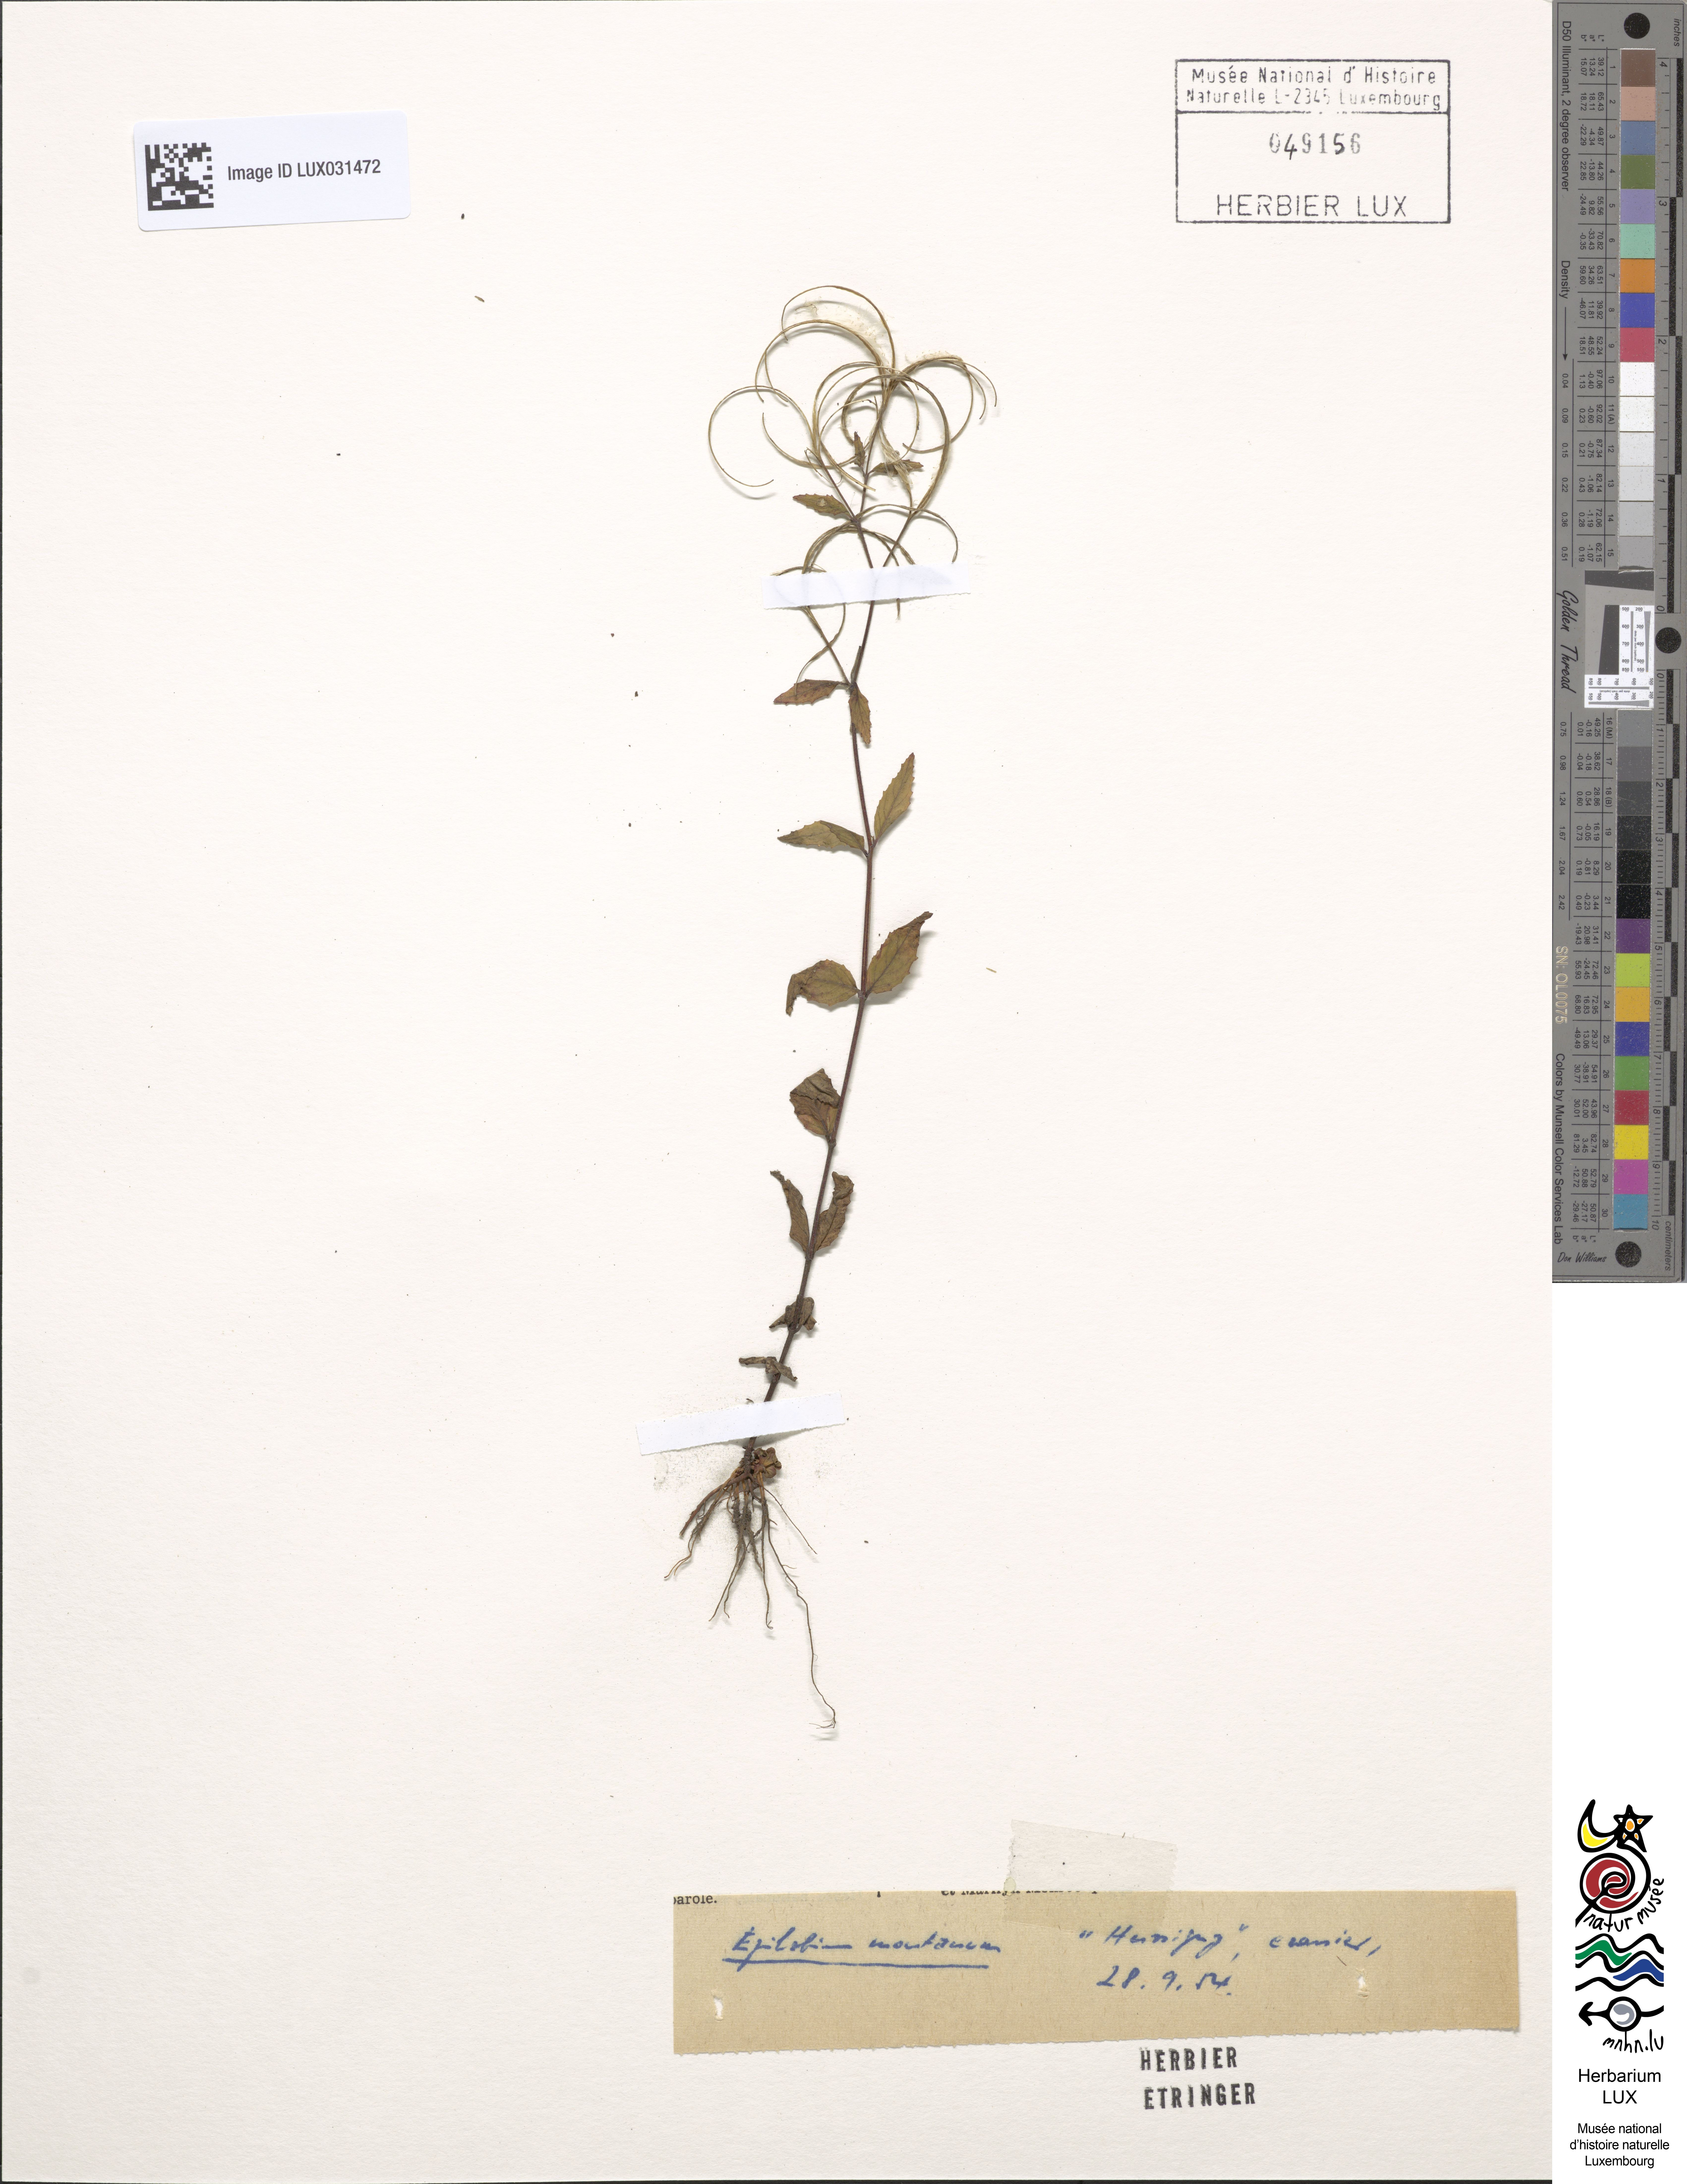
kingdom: Plantae
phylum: Tracheophyta
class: Magnoliopsida
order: Myrtales
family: Onagraceae
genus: Epilobium
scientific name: Epilobium montanum
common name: Broad-leaved willowherb
